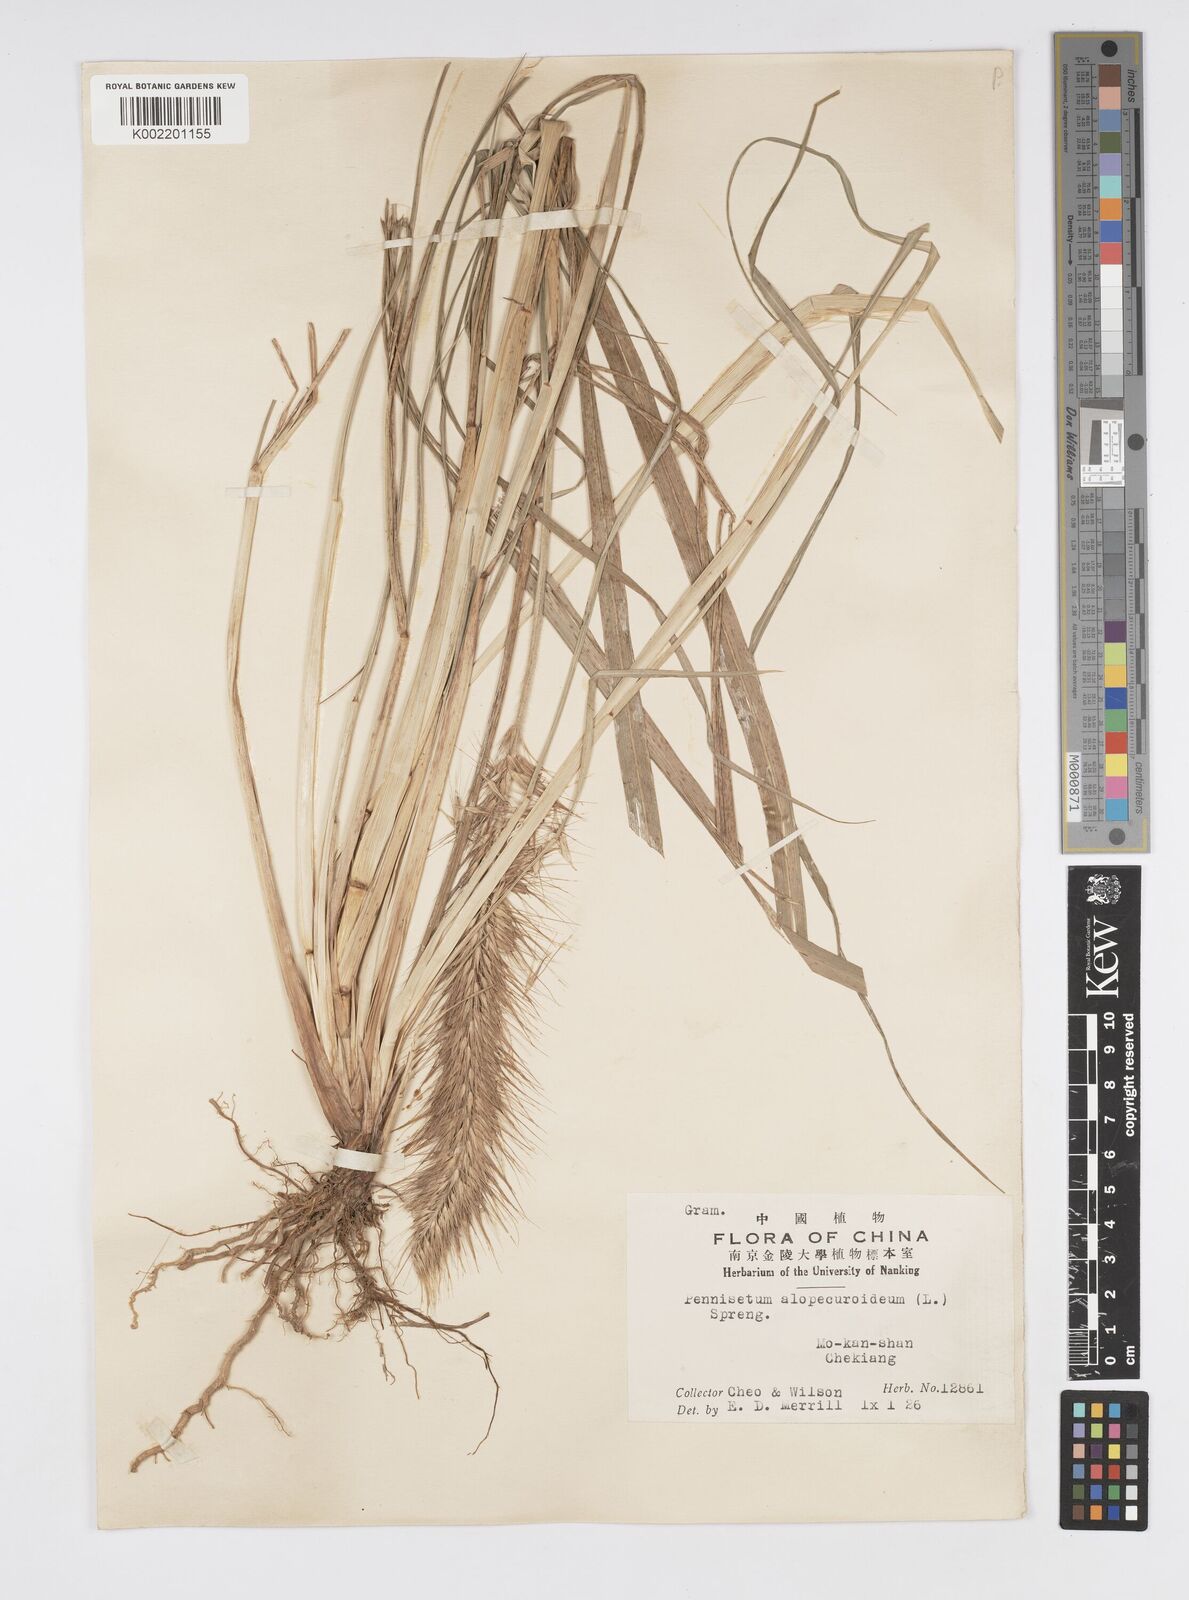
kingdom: Plantae
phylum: Tracheophyta
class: Liliopsida
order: Poales
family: Poaceae
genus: Cenchrus
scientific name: Cenchrus alopecuroides
